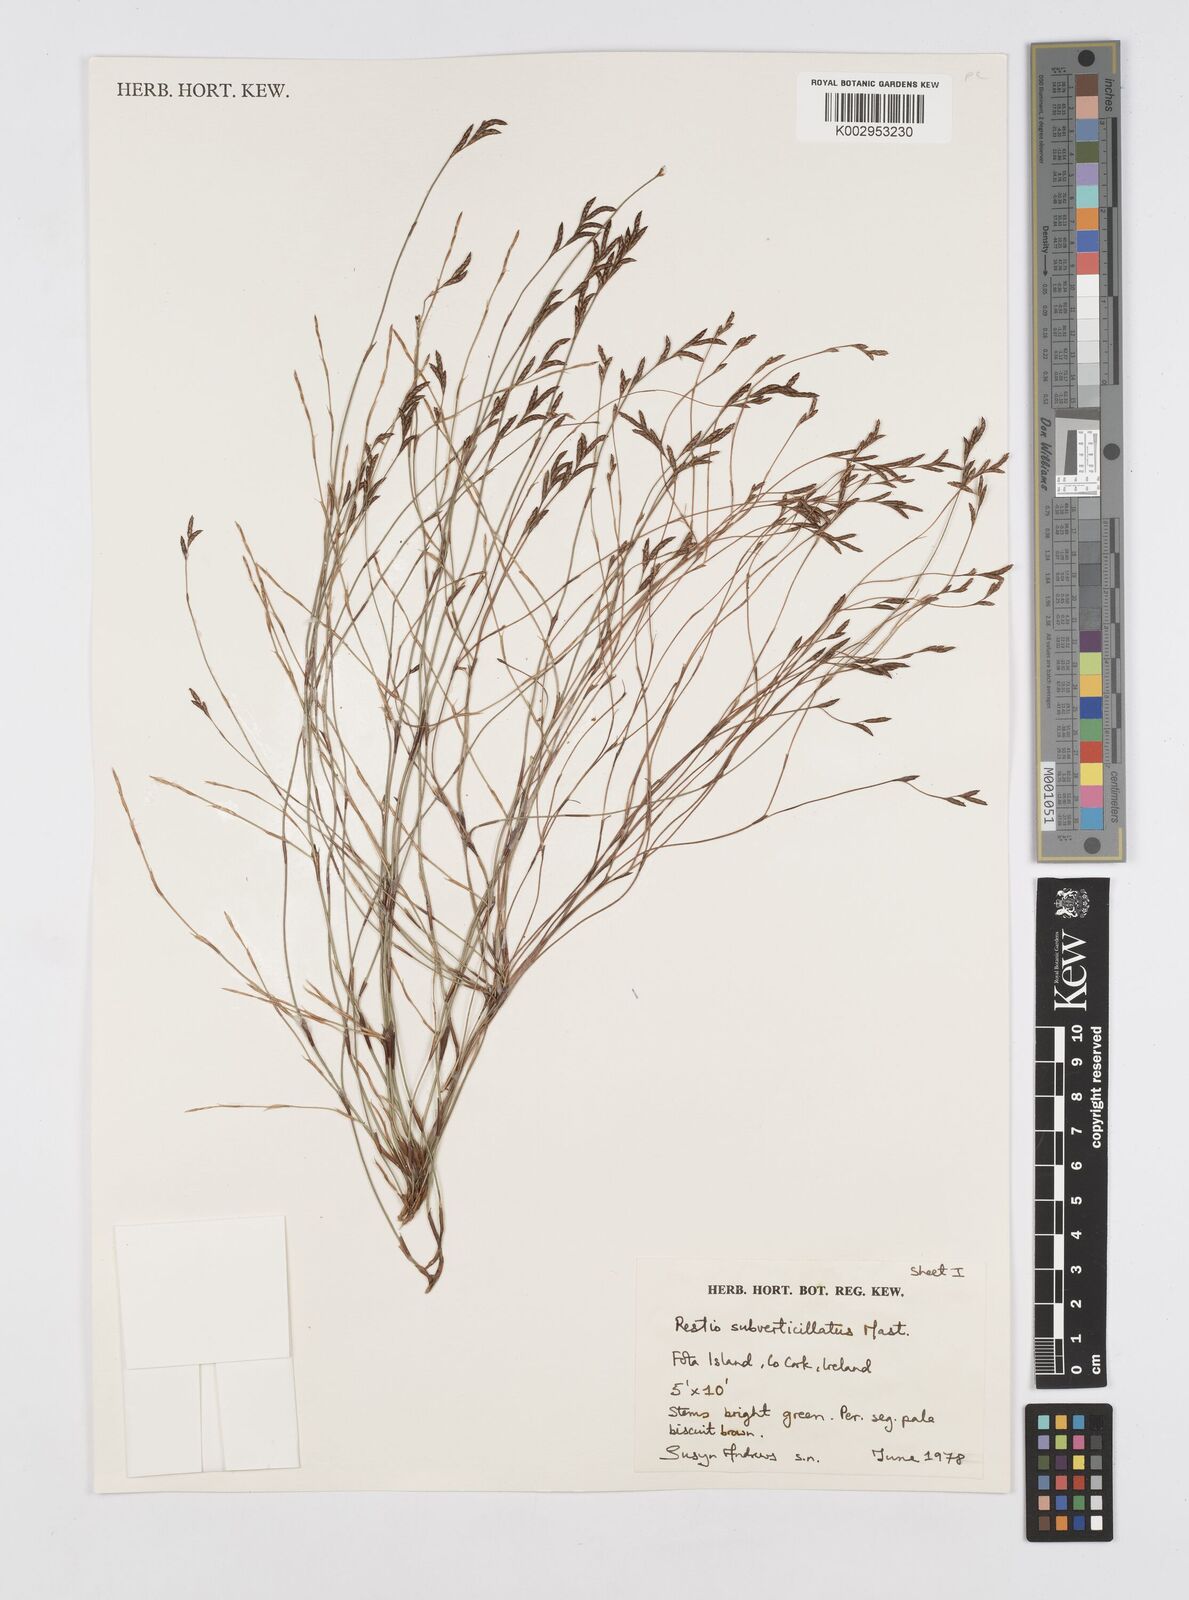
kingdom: Plantae
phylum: Tracheophyta
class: Liliopsida
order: Poales
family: Restionaceae
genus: Restio
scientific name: Restio subverticillatus
